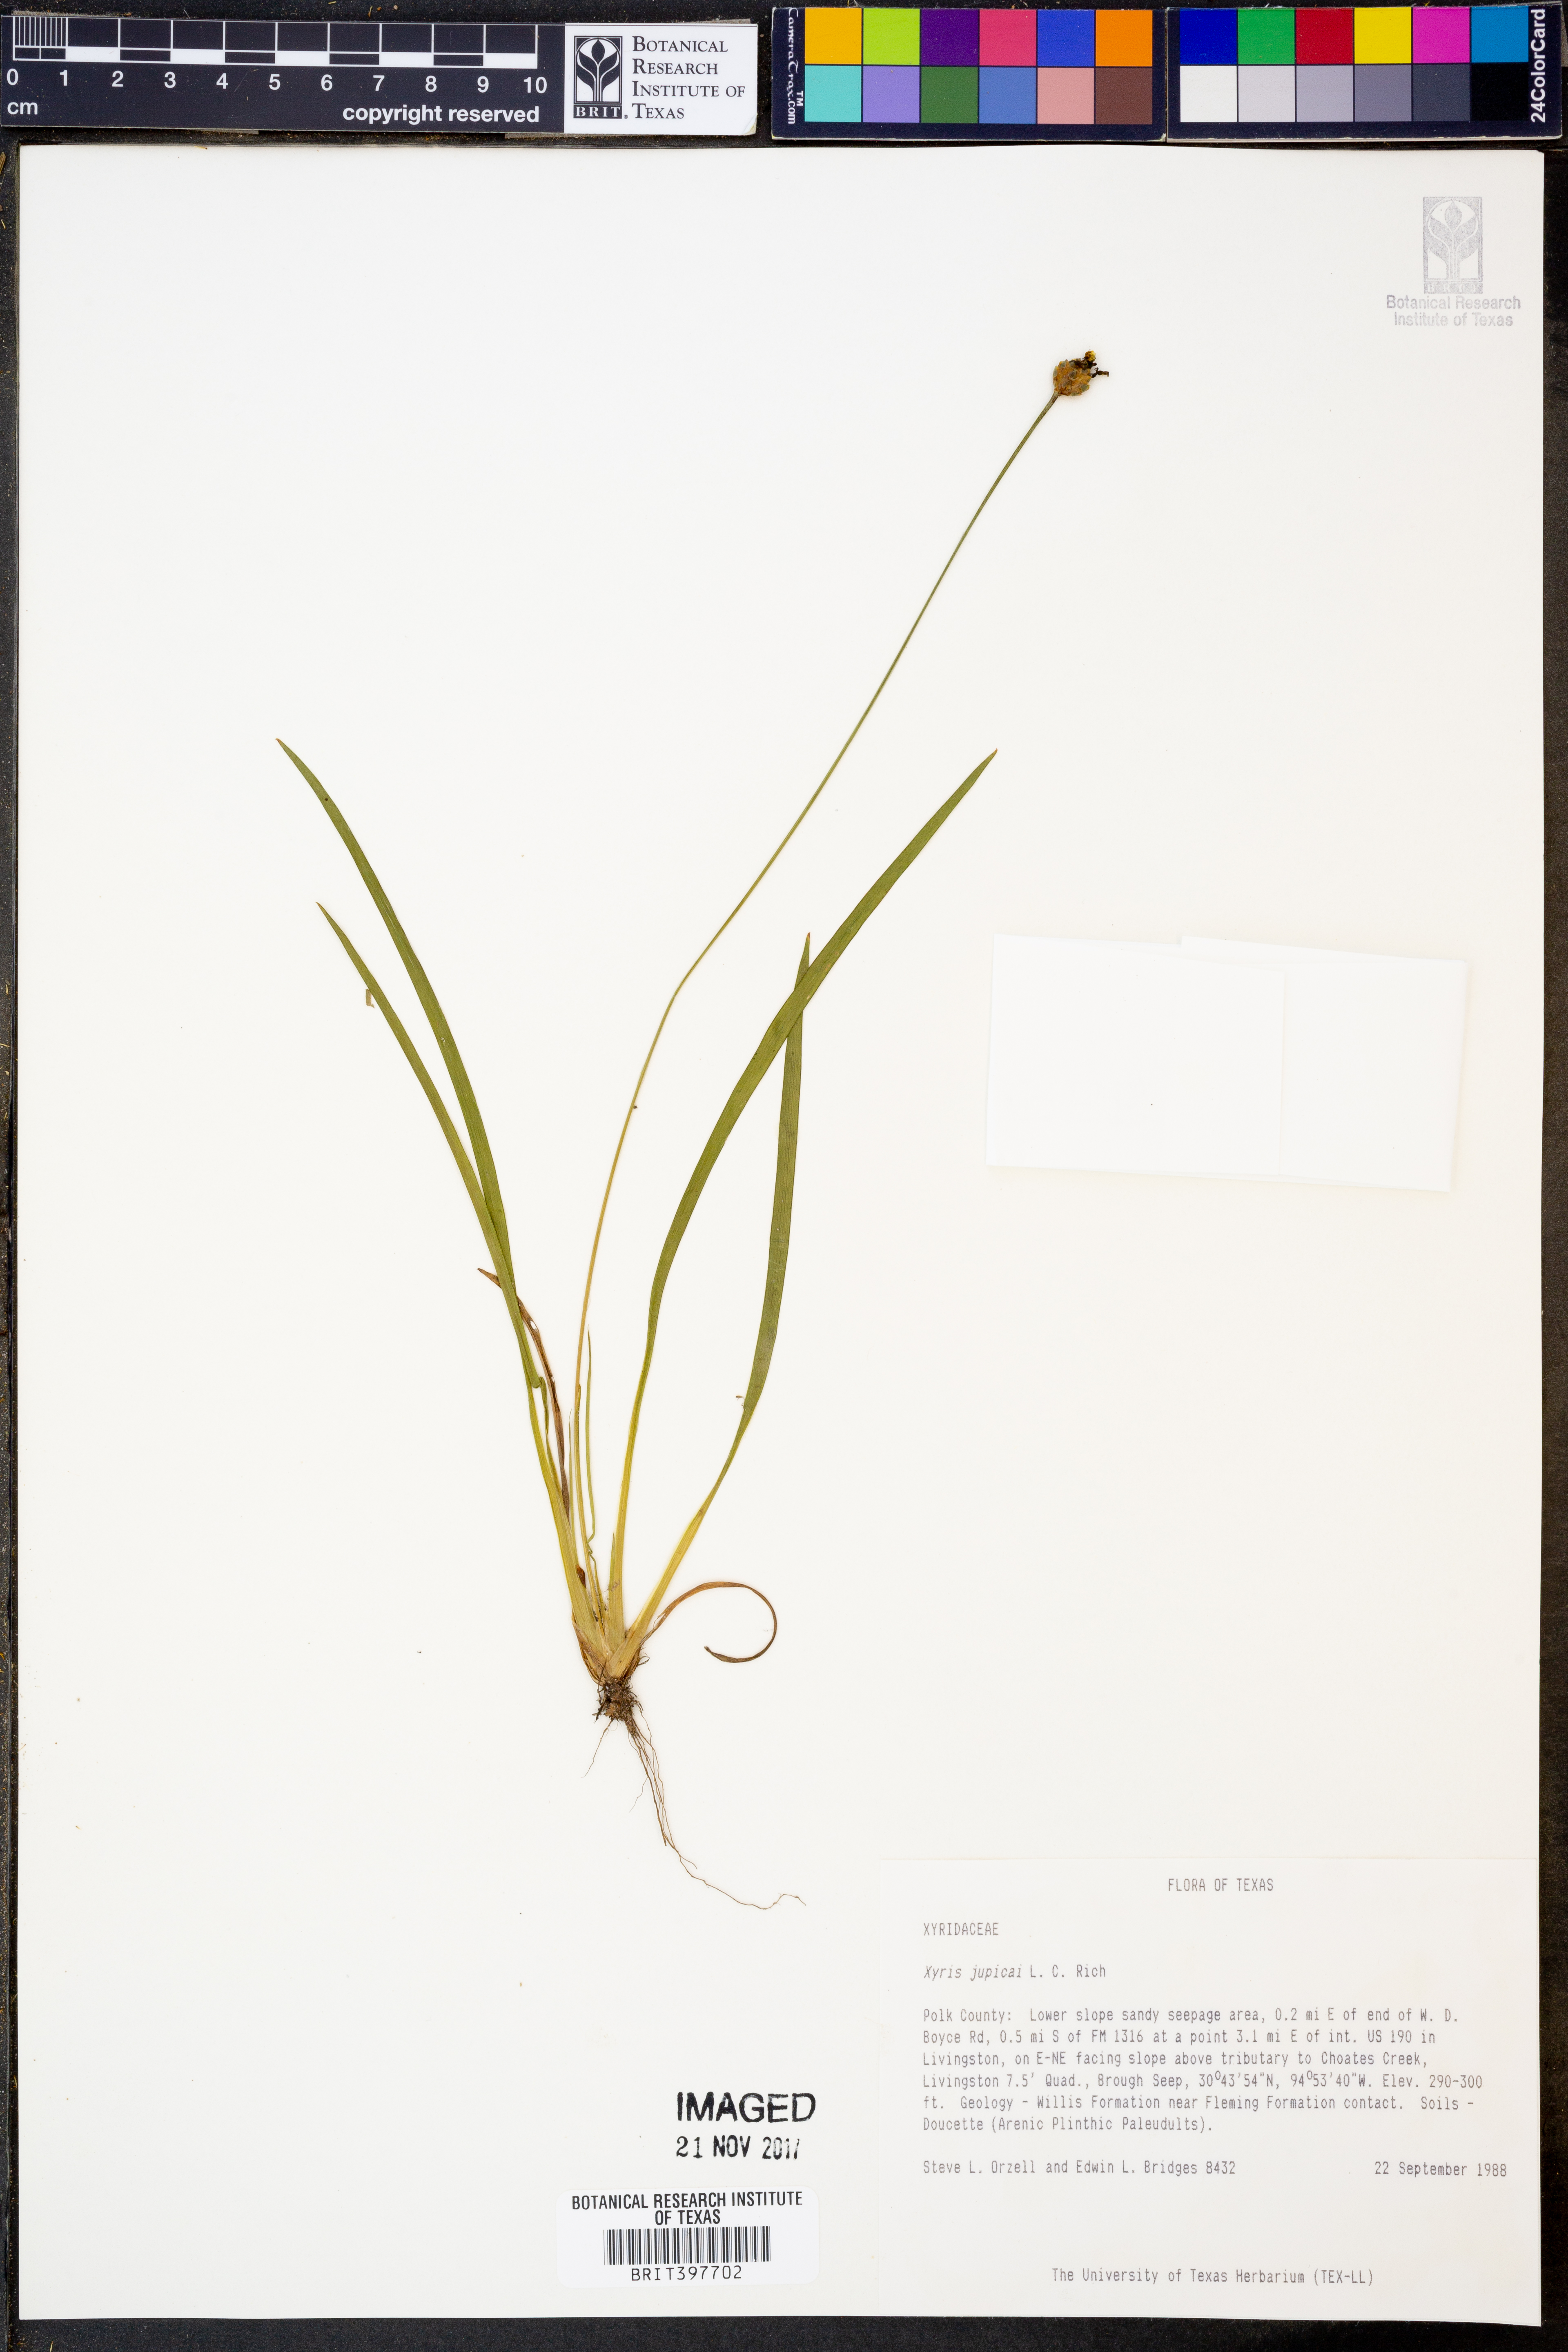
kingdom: Plantae
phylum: Tracheophyta
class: Liliopsida
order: Poales
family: Xyridaceae
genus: Xyris
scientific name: Xyris jupicai
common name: Richard's yelloweyed grass
